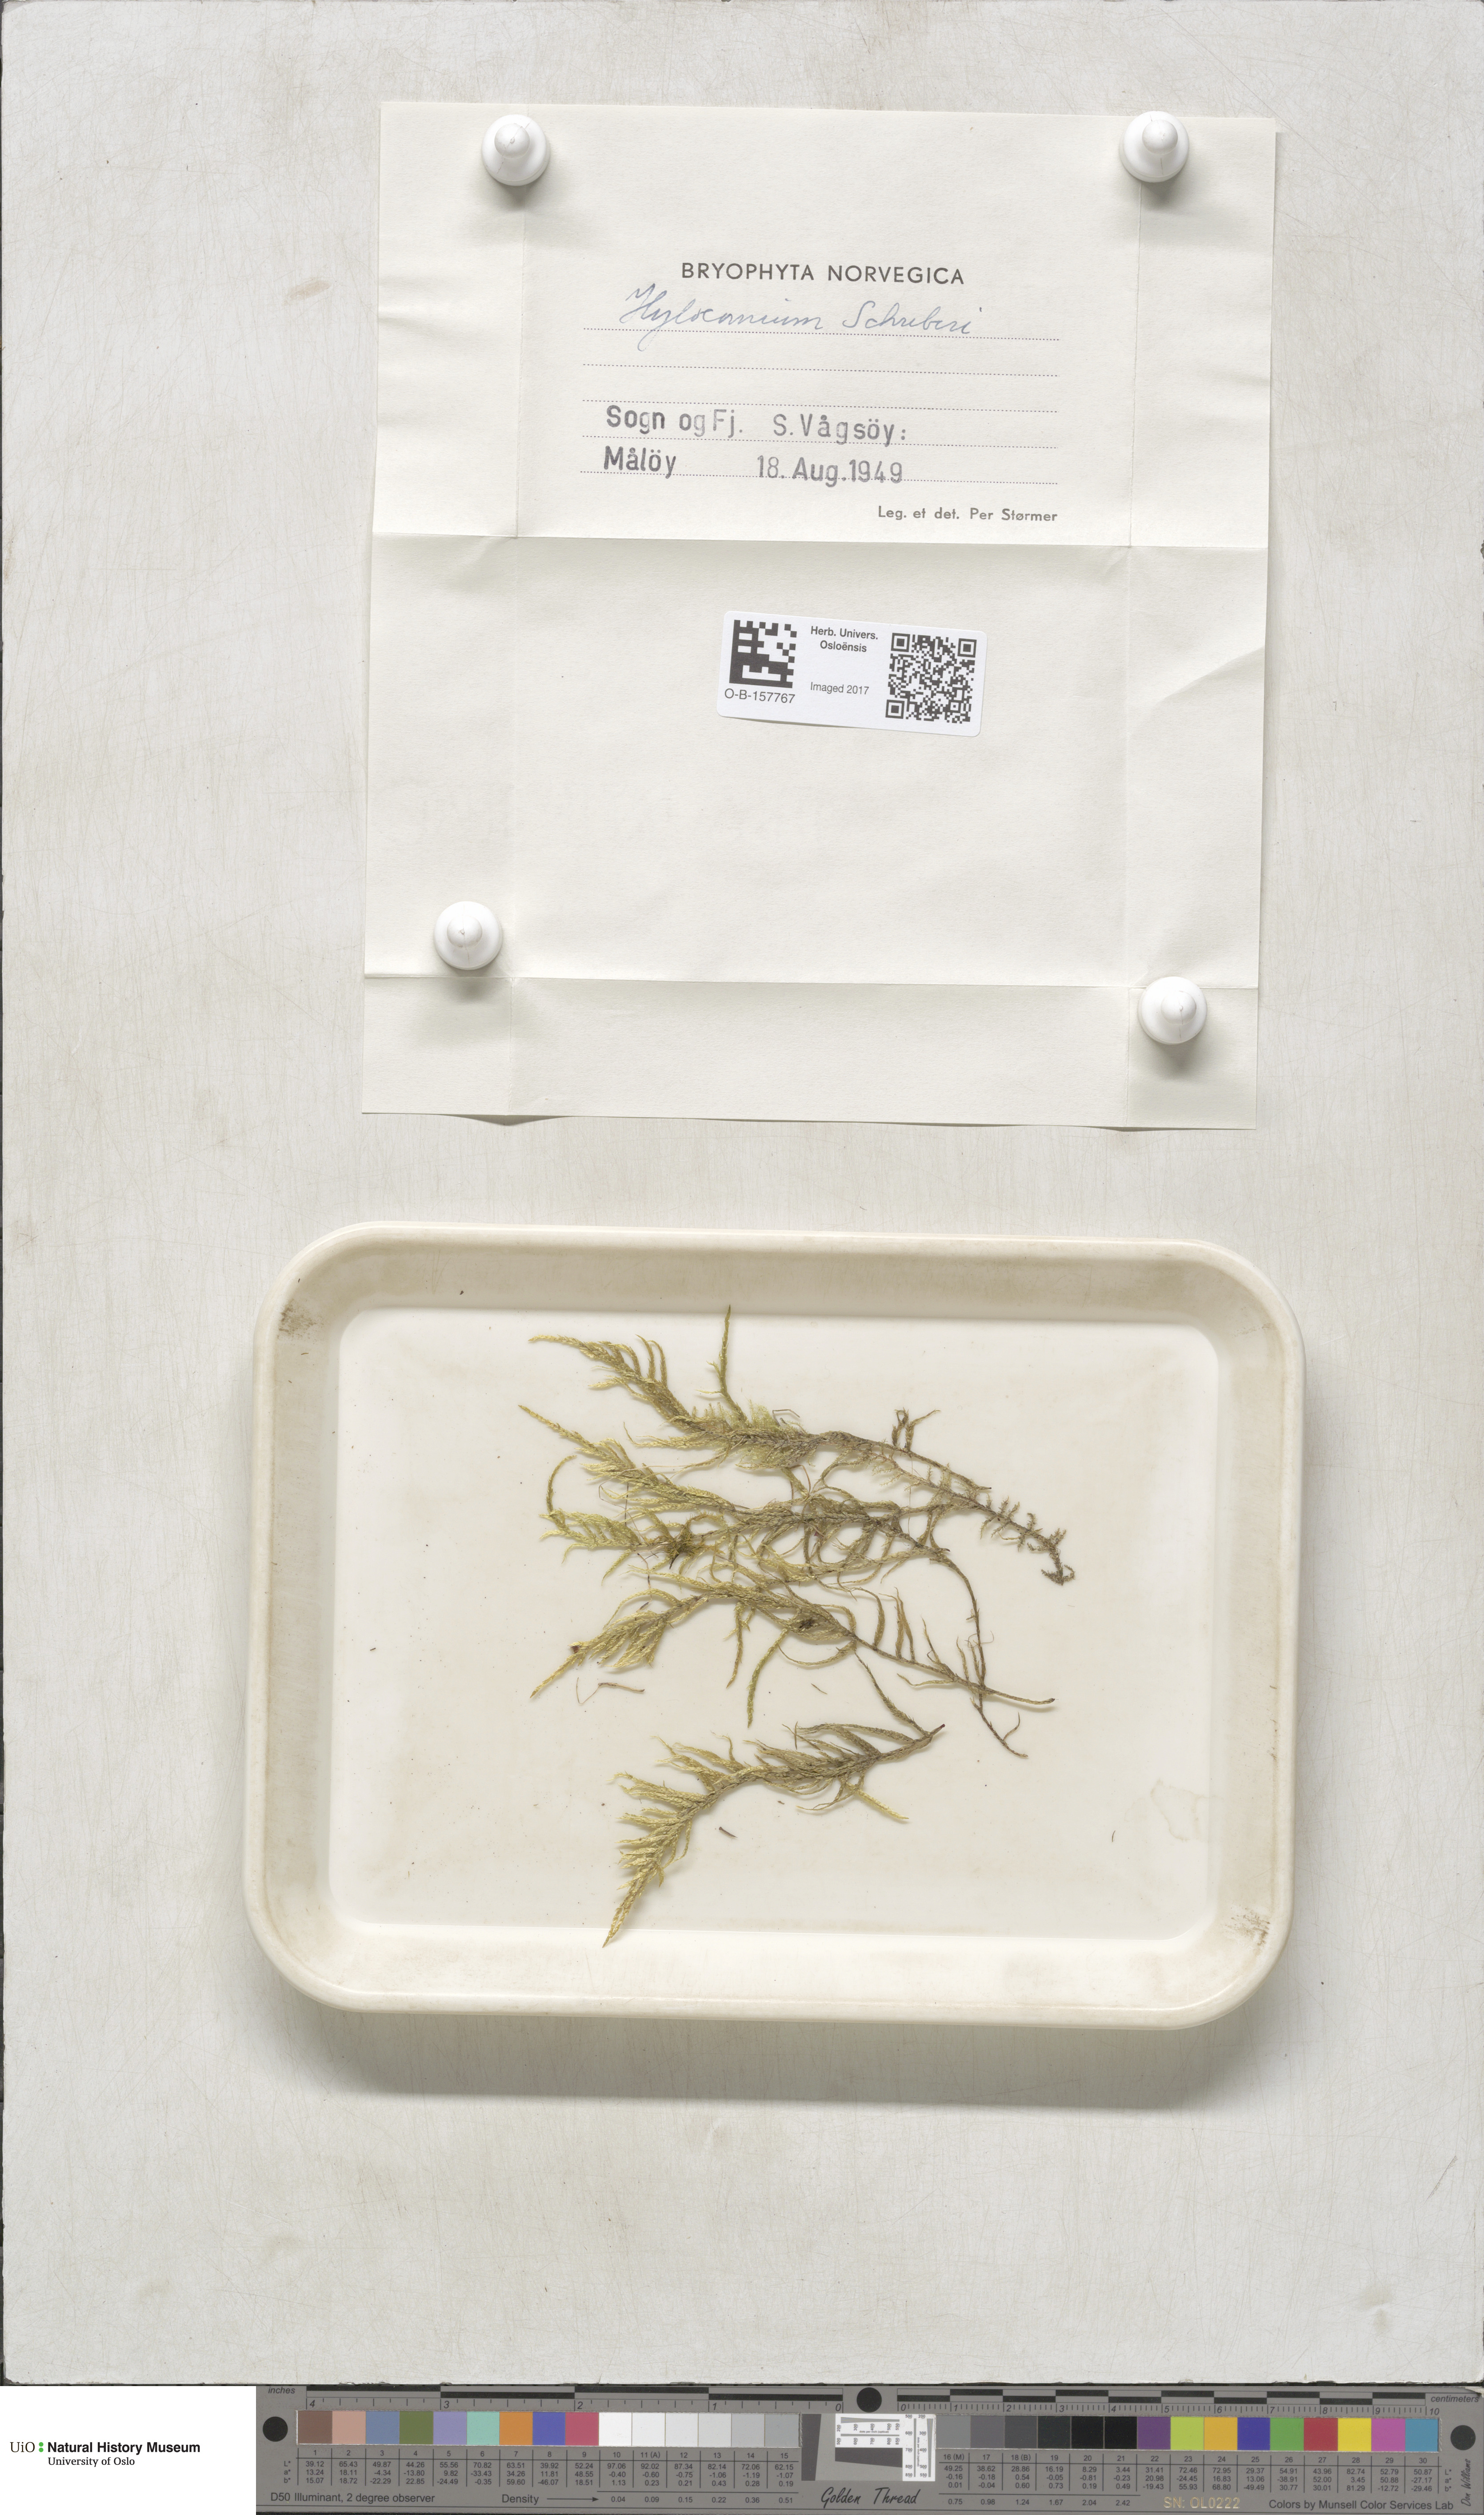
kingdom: Plantae
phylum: Bryophyta
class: Bryopsida
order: Hypnales
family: Hylocomiaceae
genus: Pleurozium
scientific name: Pleurozium schreberi
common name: Red-stemmed feather moss
